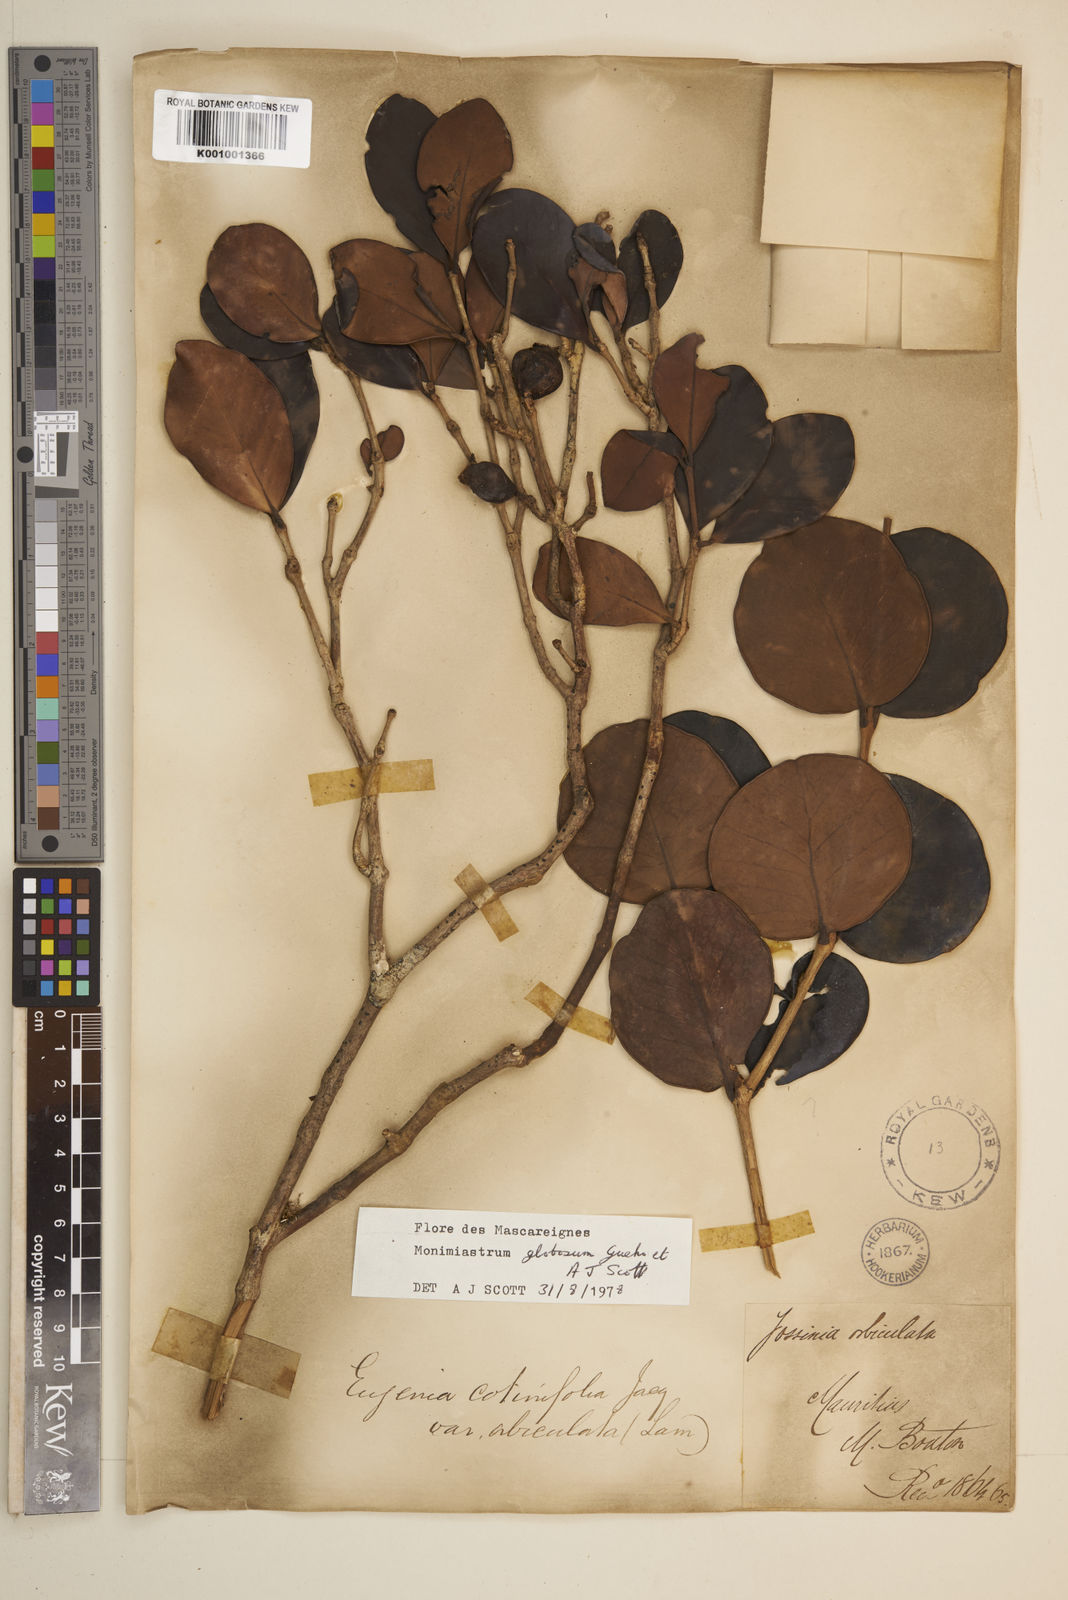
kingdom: Plantae
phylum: Tracheophyta
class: Magnoliopsida
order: Myrtales
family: Myrtaceae
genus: Eugenia
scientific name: Eugenia kanakana
